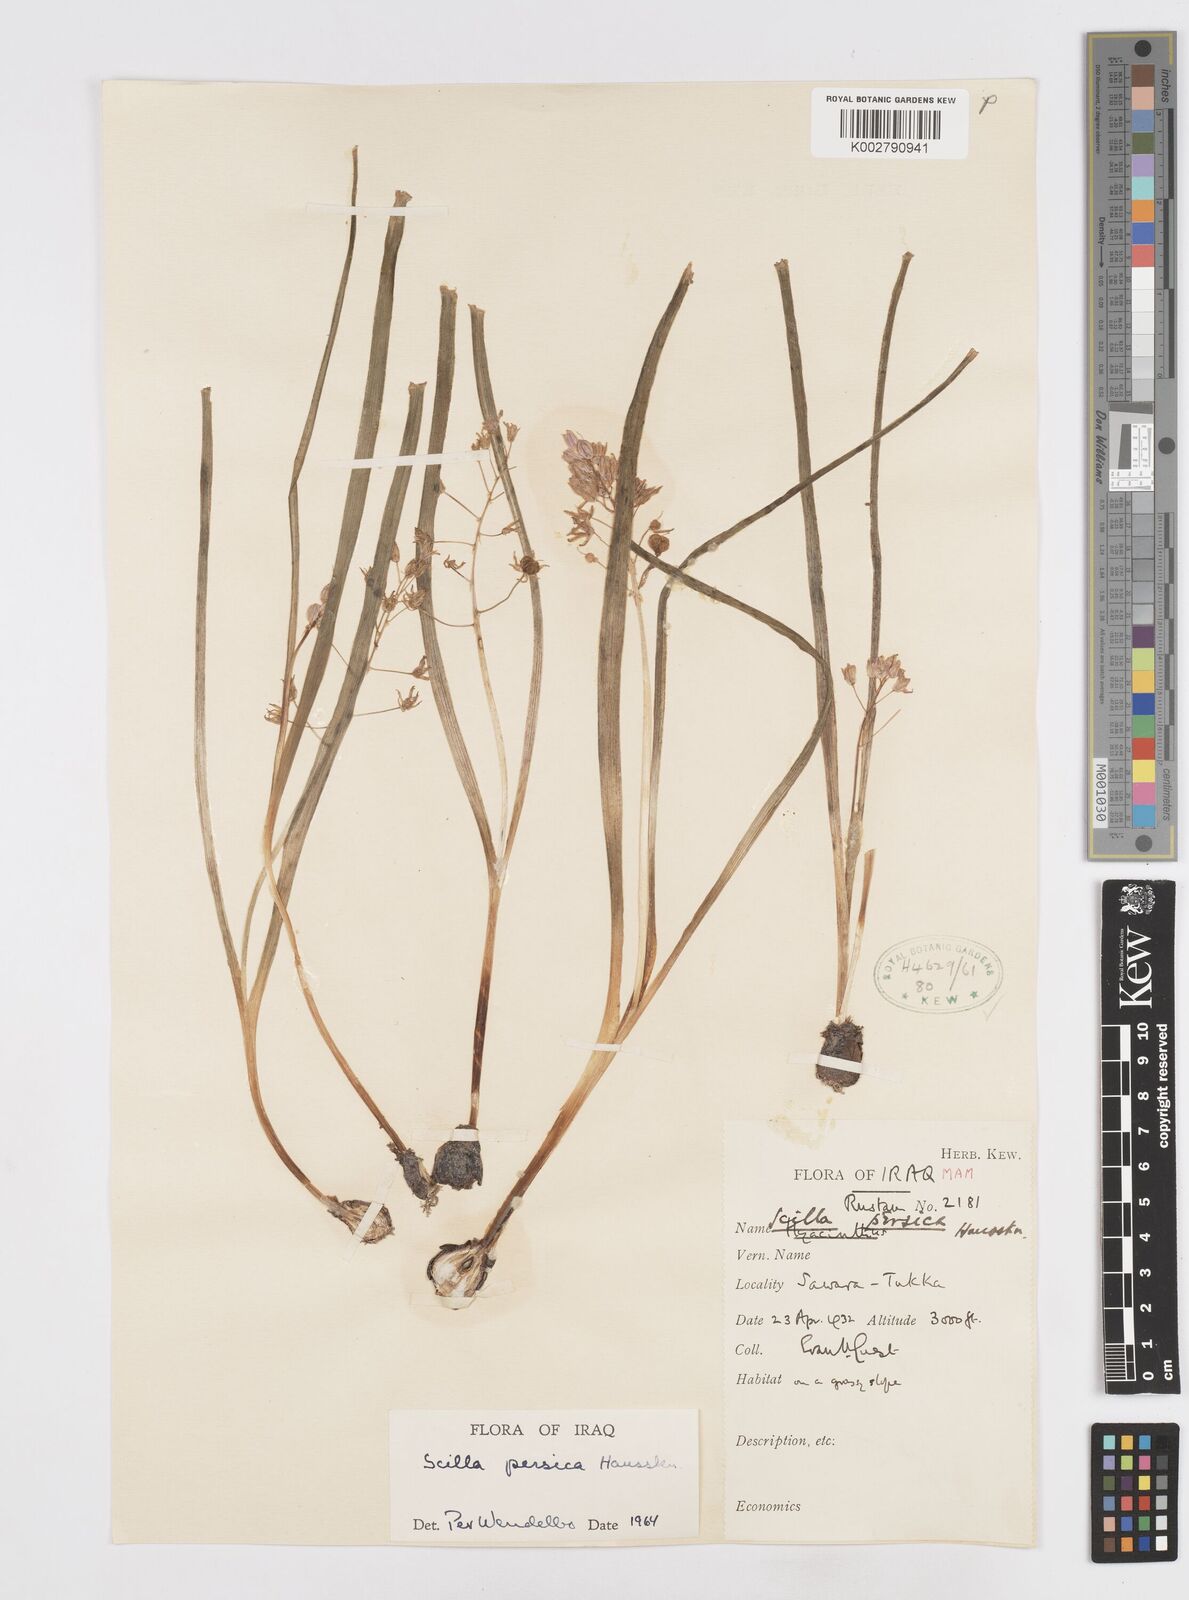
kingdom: Plantae
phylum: Tracheophyta
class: Liliopsida
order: Asparagales
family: Asparagaceae
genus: Zagrosia
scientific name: Zagrosia persica
